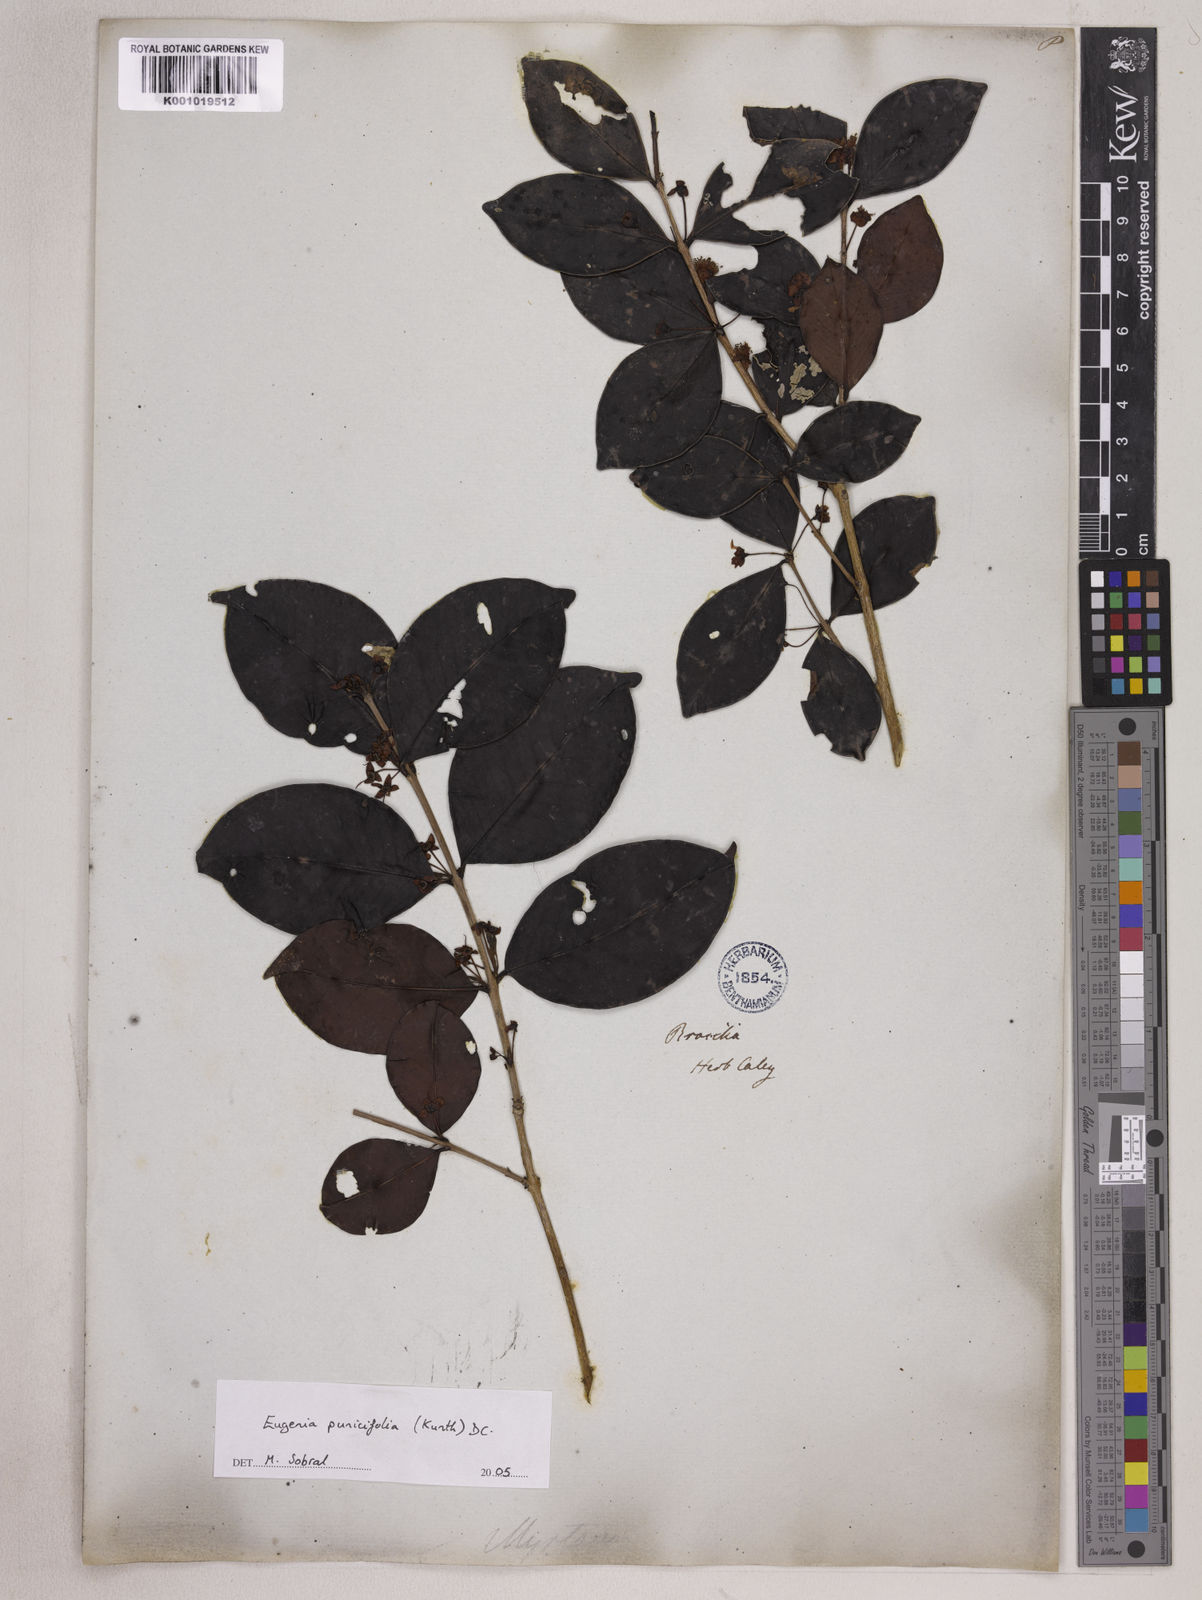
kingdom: Plantae
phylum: Tracheophyta
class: Magnoliopsida
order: Myrtales
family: Myrtaceae
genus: Eugenia
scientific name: Eugenia punicifolia
